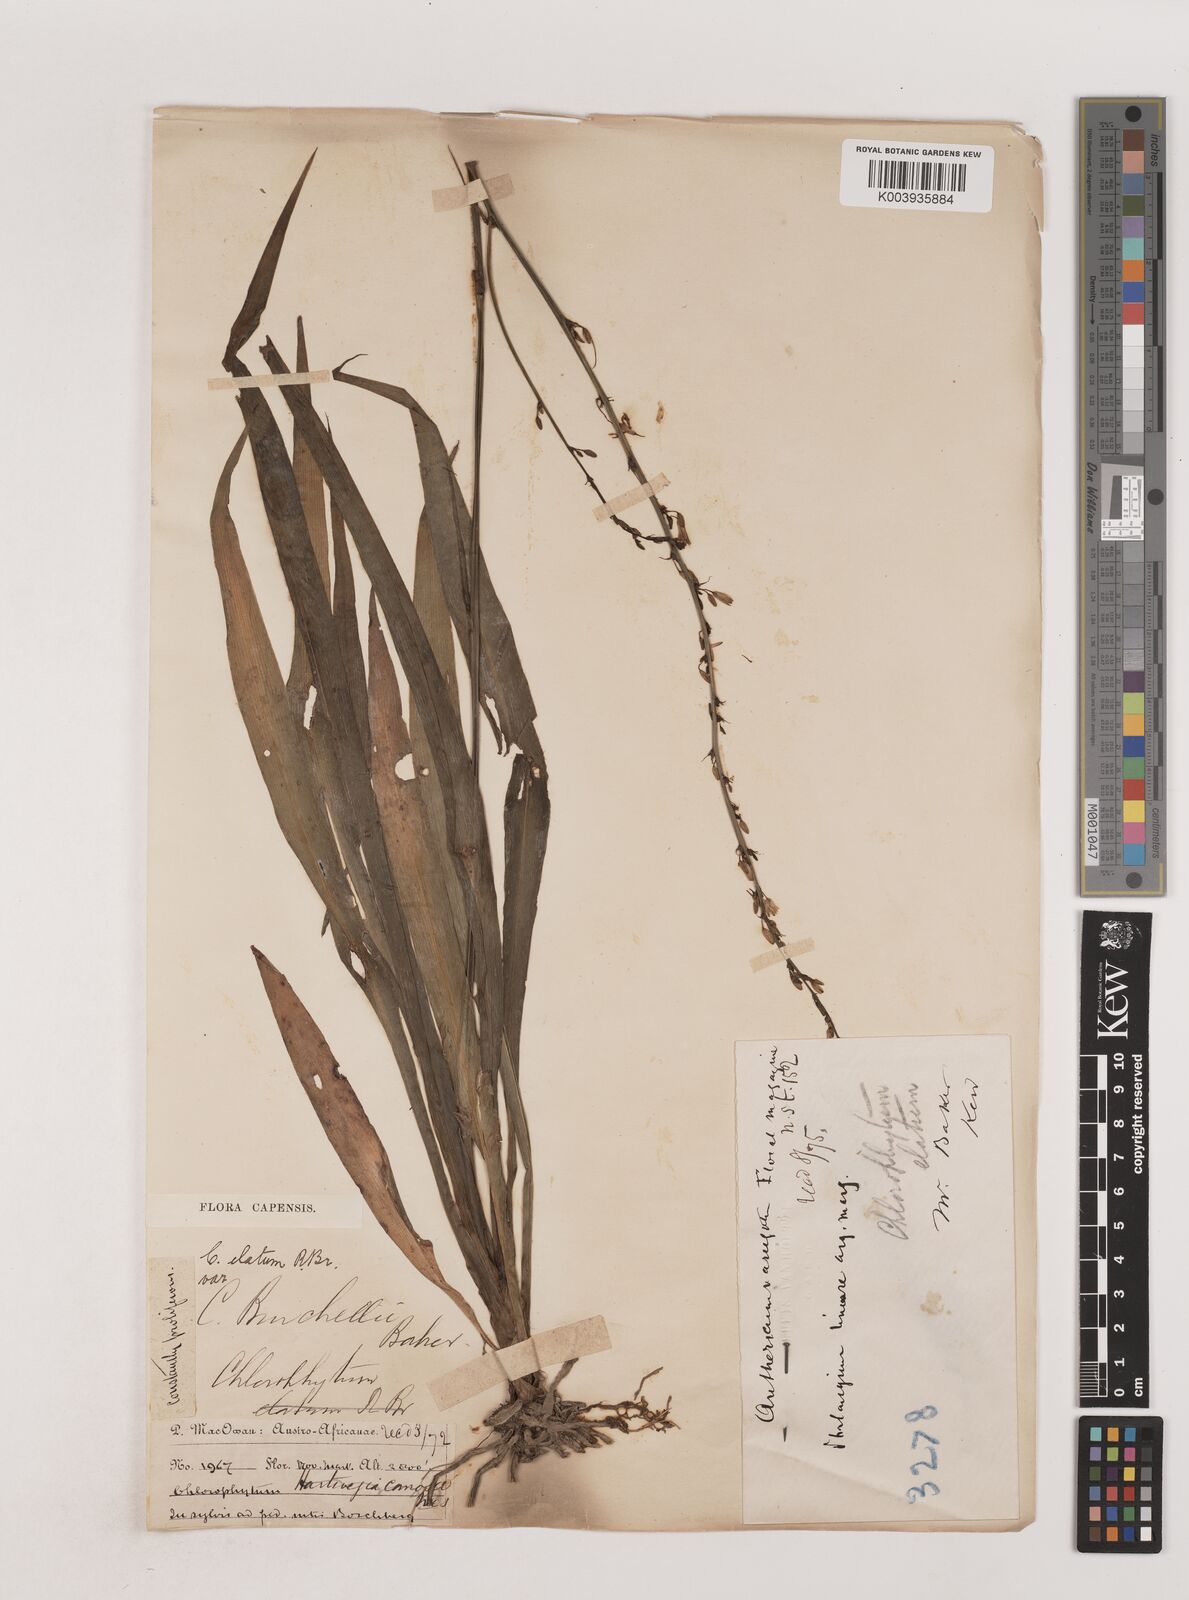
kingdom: Plantae
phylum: Tracheophyta
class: Liliopsida
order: Asparagales
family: Asparagaceae
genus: Chlorophytum
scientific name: Chlorophytum comosum
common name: Spider plant
